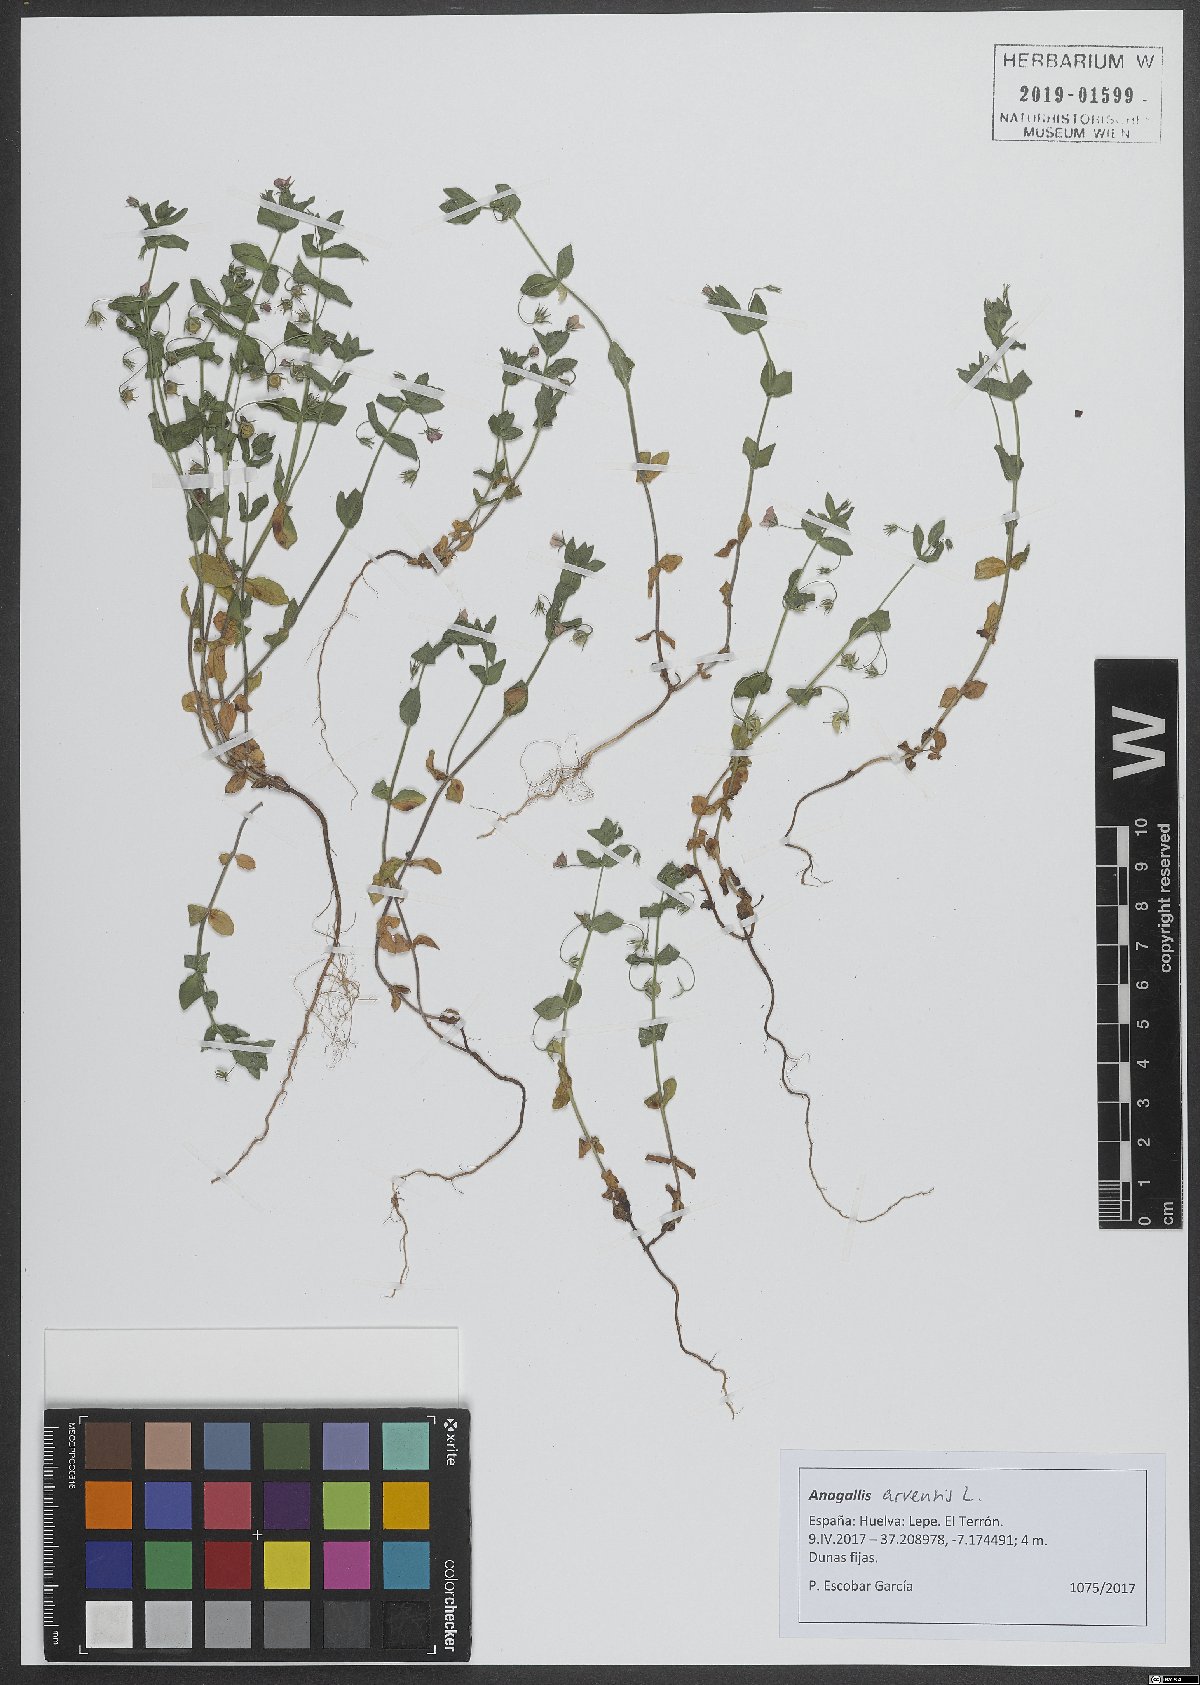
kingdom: Plantae
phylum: Tracheophyta
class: Magnoliopsida
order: Ericales
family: Primulaceae
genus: Lysimachia
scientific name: Lysimachia arvensis
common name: Scarlet pimpernel
